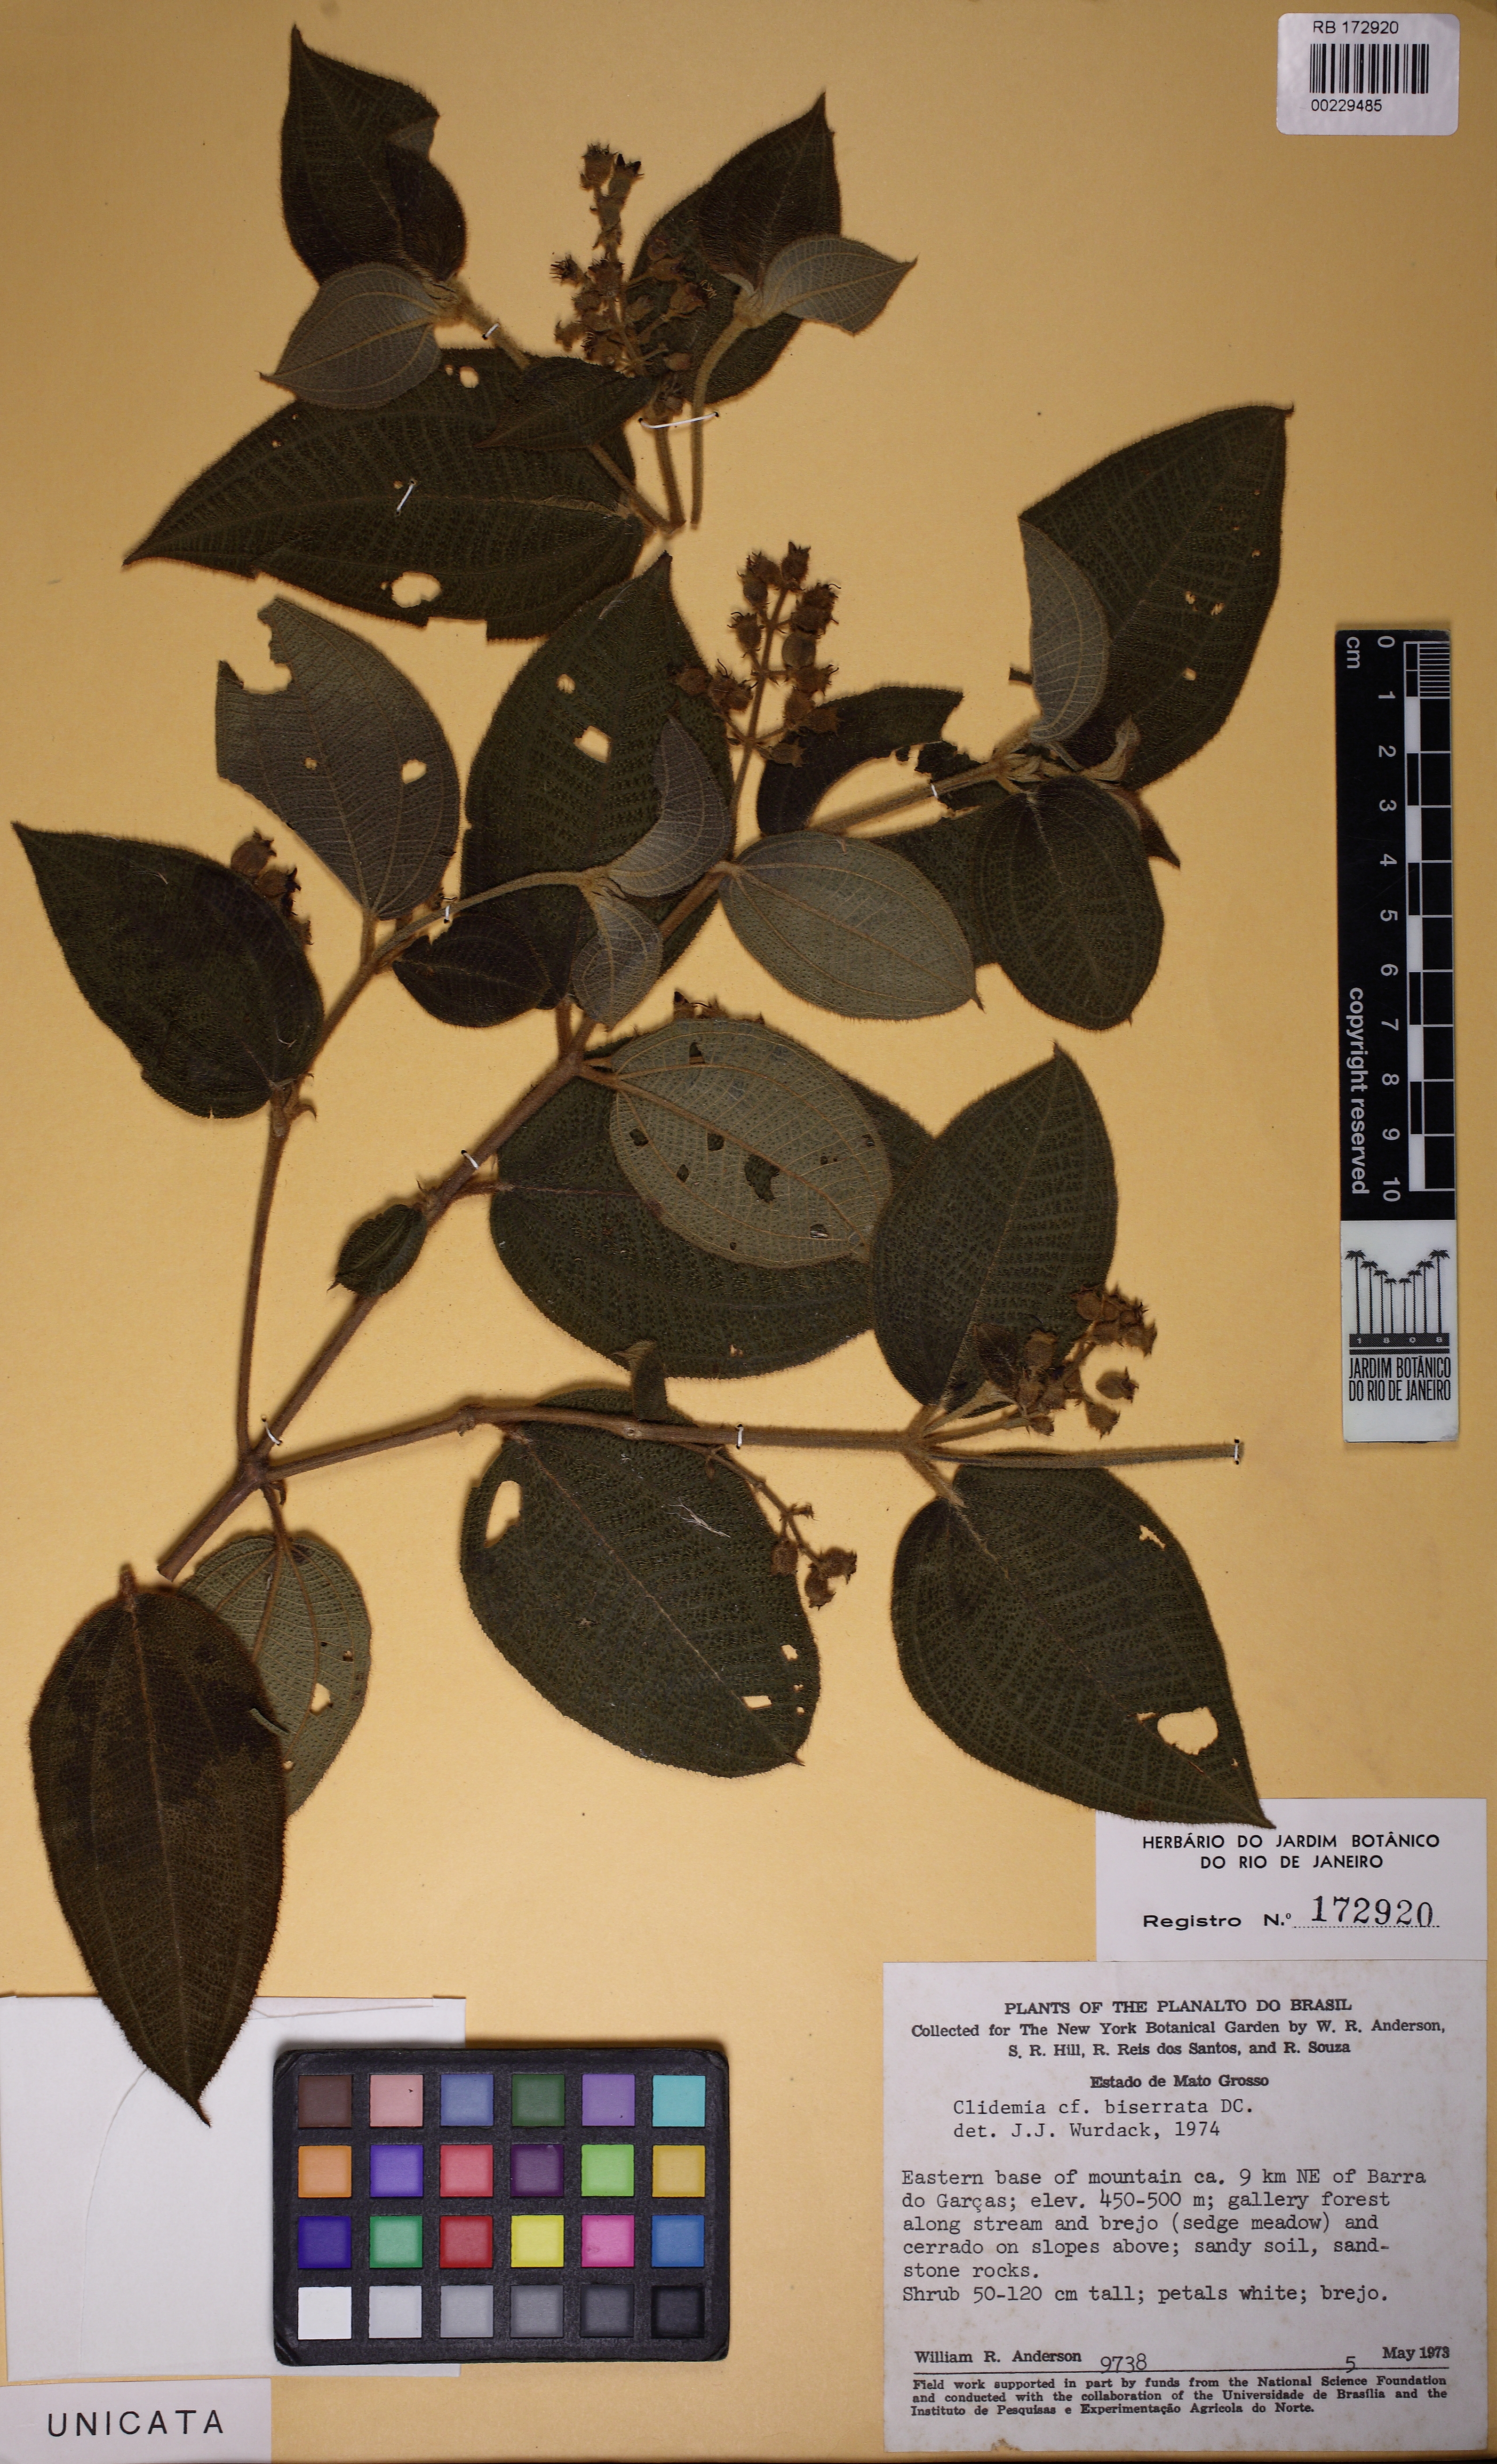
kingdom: Plantae
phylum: Tracheophyta
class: Magnoliopsida
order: Myrtales
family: Melastomataceae
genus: Miconia
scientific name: Miconia biserrata
